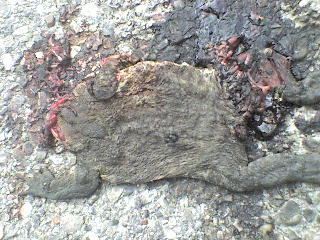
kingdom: Animalia
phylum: Chordata
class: Amphibia
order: Anura
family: Bufonidae
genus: Bufo
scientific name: Bufo bufo
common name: Common toad
